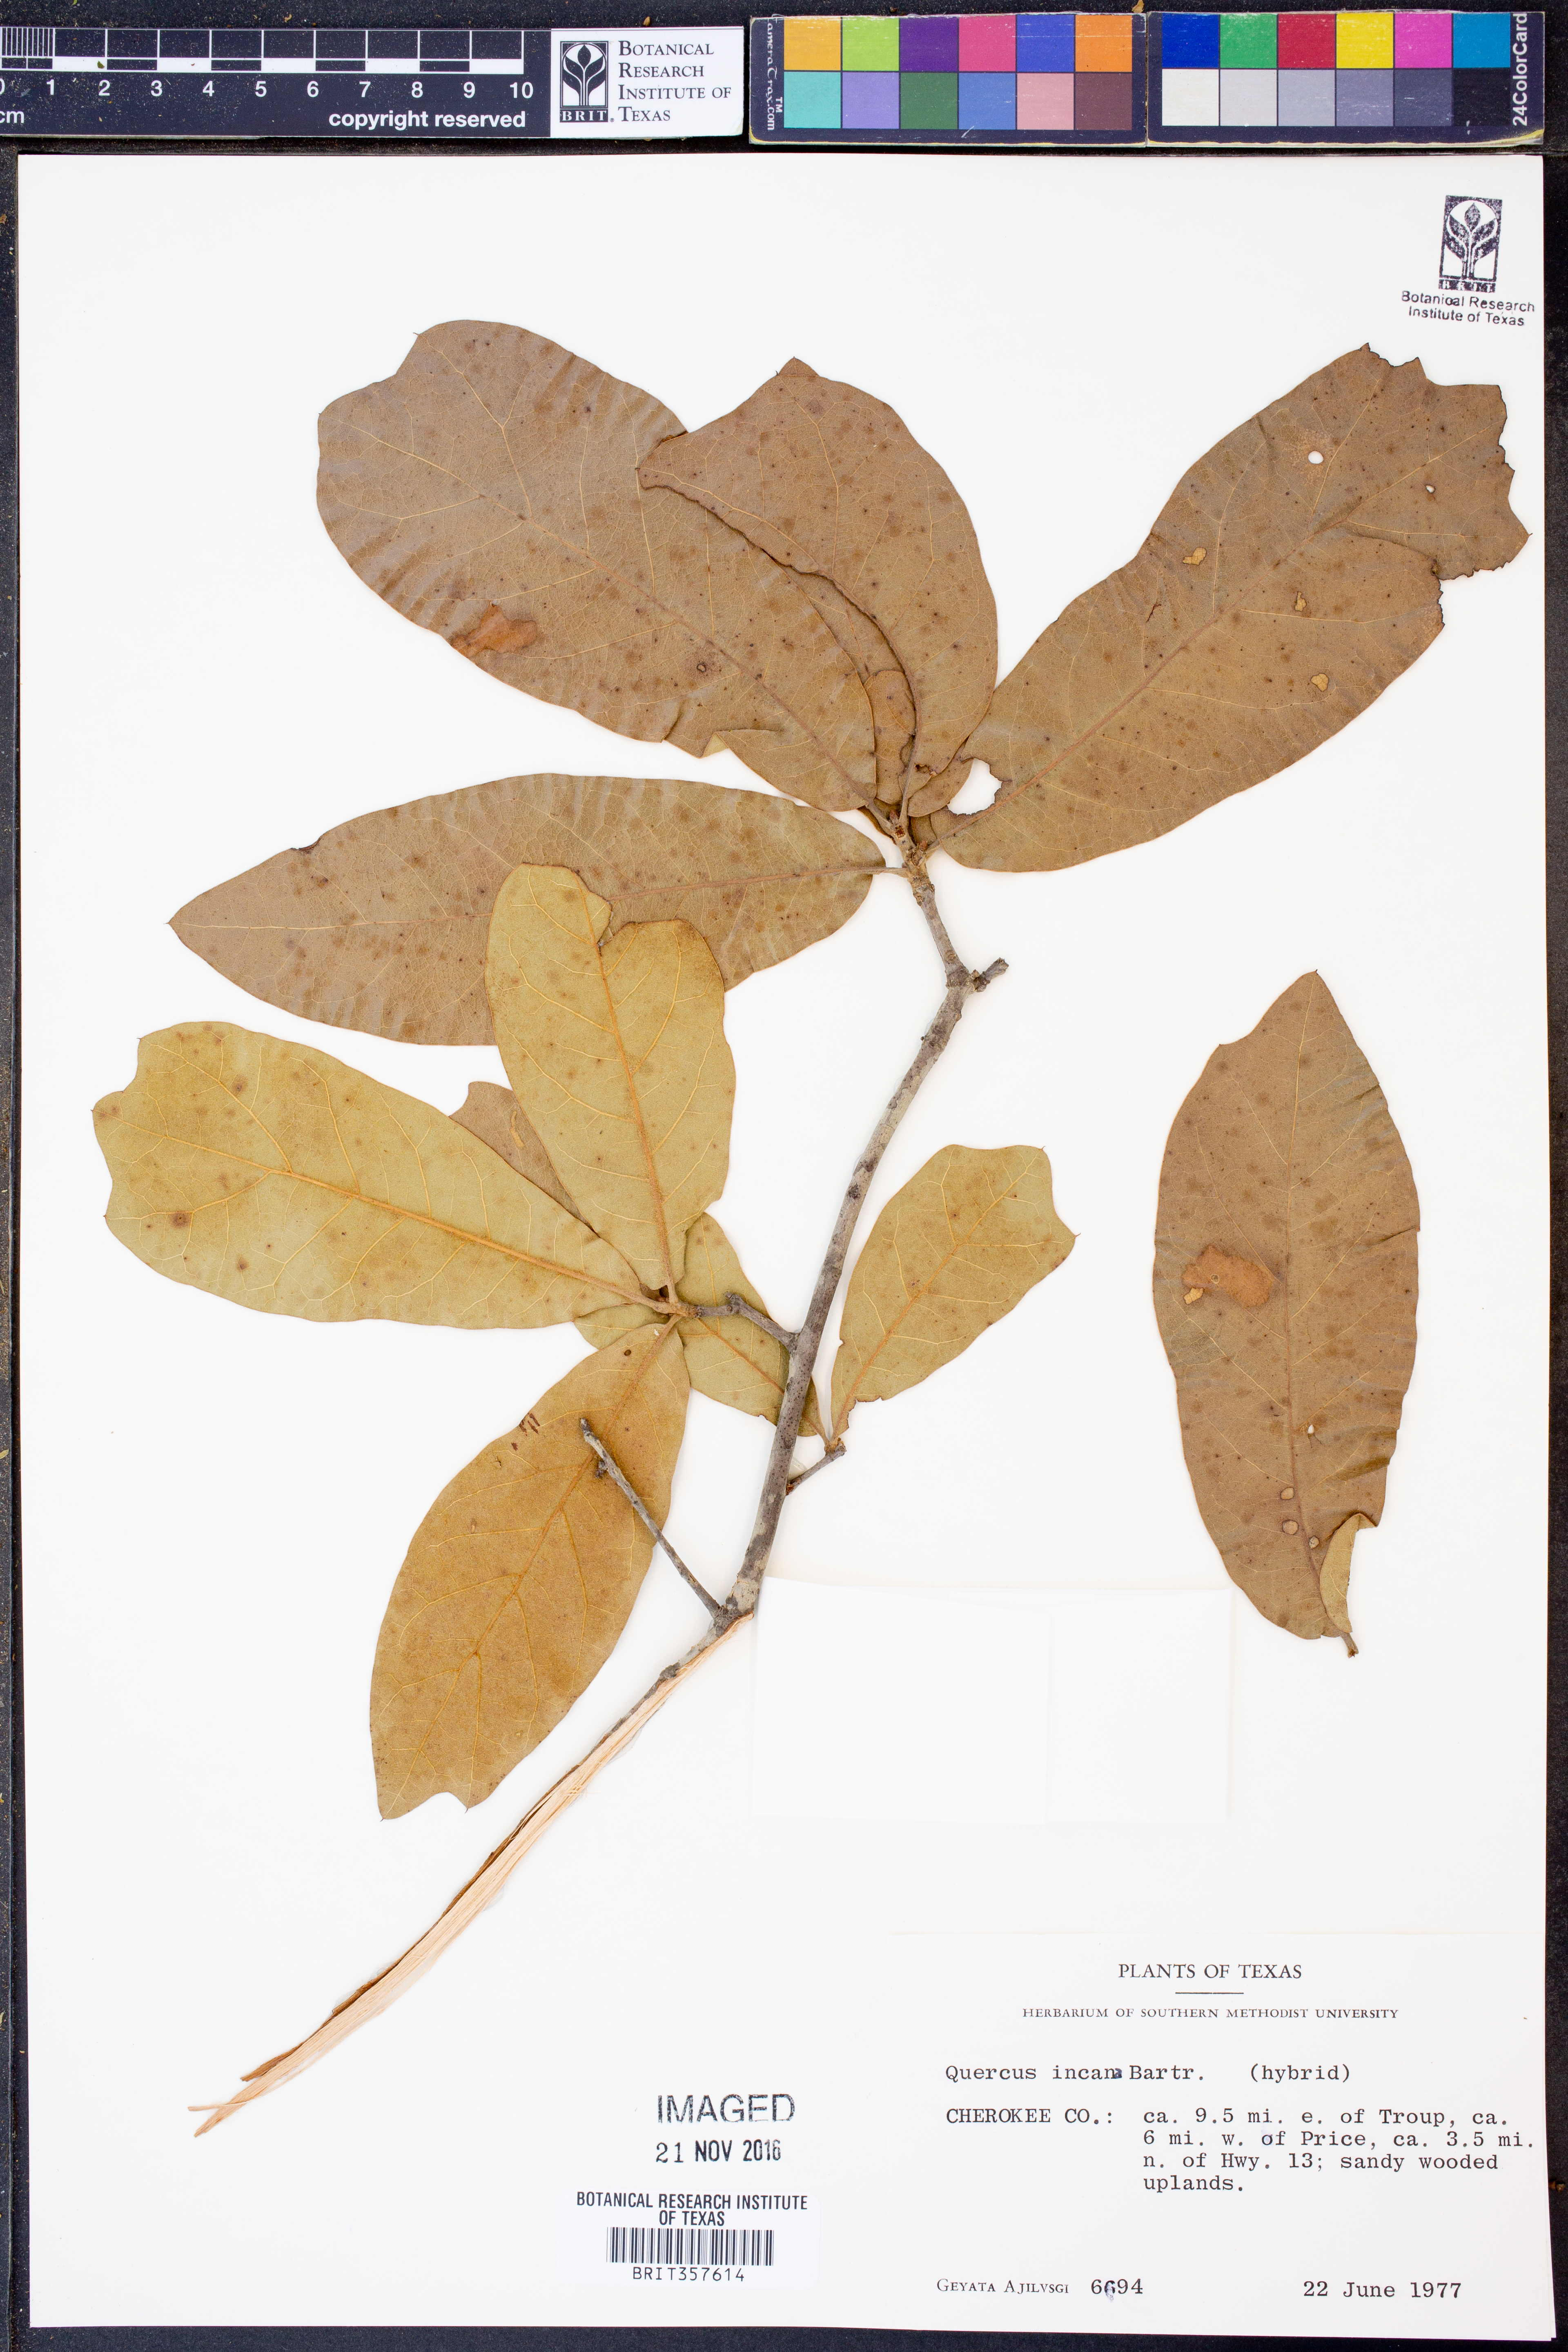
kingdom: Plantae
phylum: Tracheophyta
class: Magnoliopsida
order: Fagales
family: Fagaceae
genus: Quercus
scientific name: Quercus incana
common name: Bluejack oak
